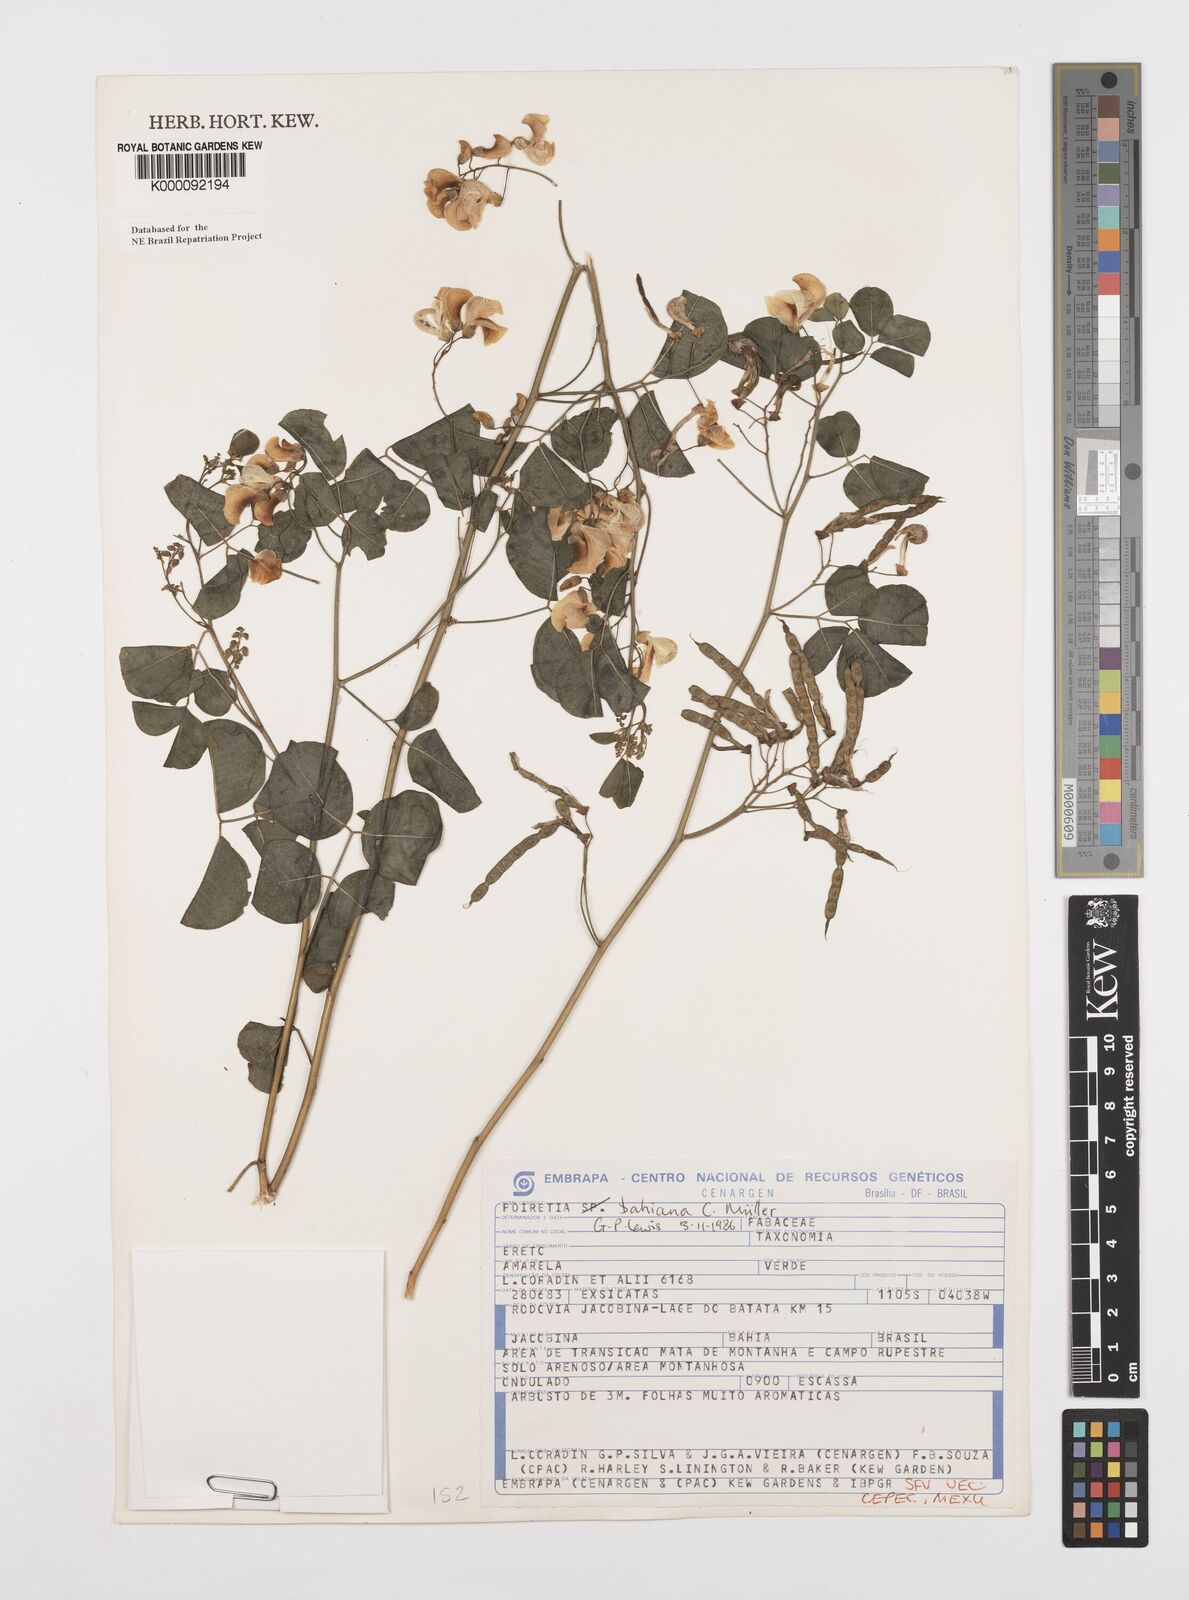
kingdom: Plantae
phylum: Tracheophyta
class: Magnoliopsida
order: Fabales
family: Fabaceae
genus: Poiretia
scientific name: Poiretia
